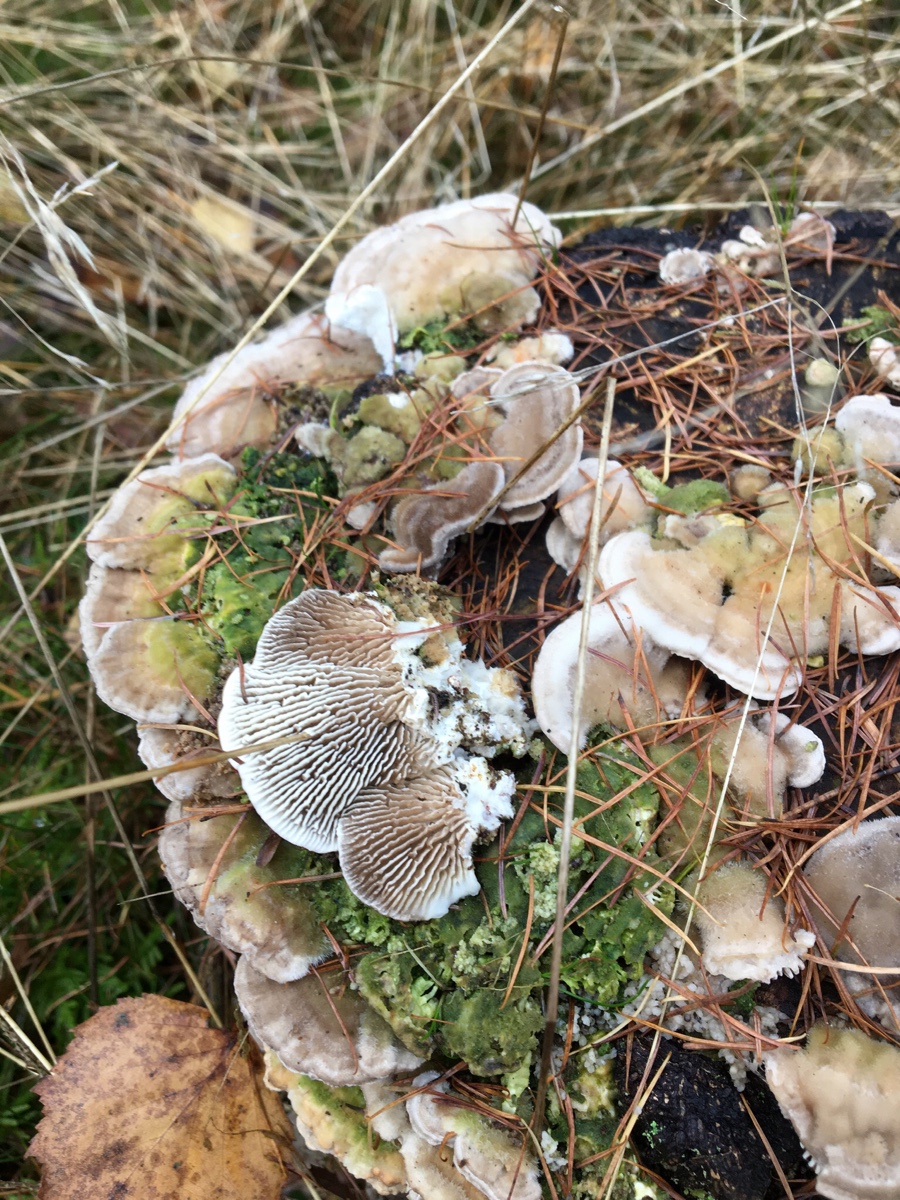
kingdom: Fungi
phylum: Basidiomycota
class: Agaricomycetes
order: Polyporales
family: Polyporaceae
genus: Lenzites
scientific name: Lenzites betulinus
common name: birke-læderporesvamp
